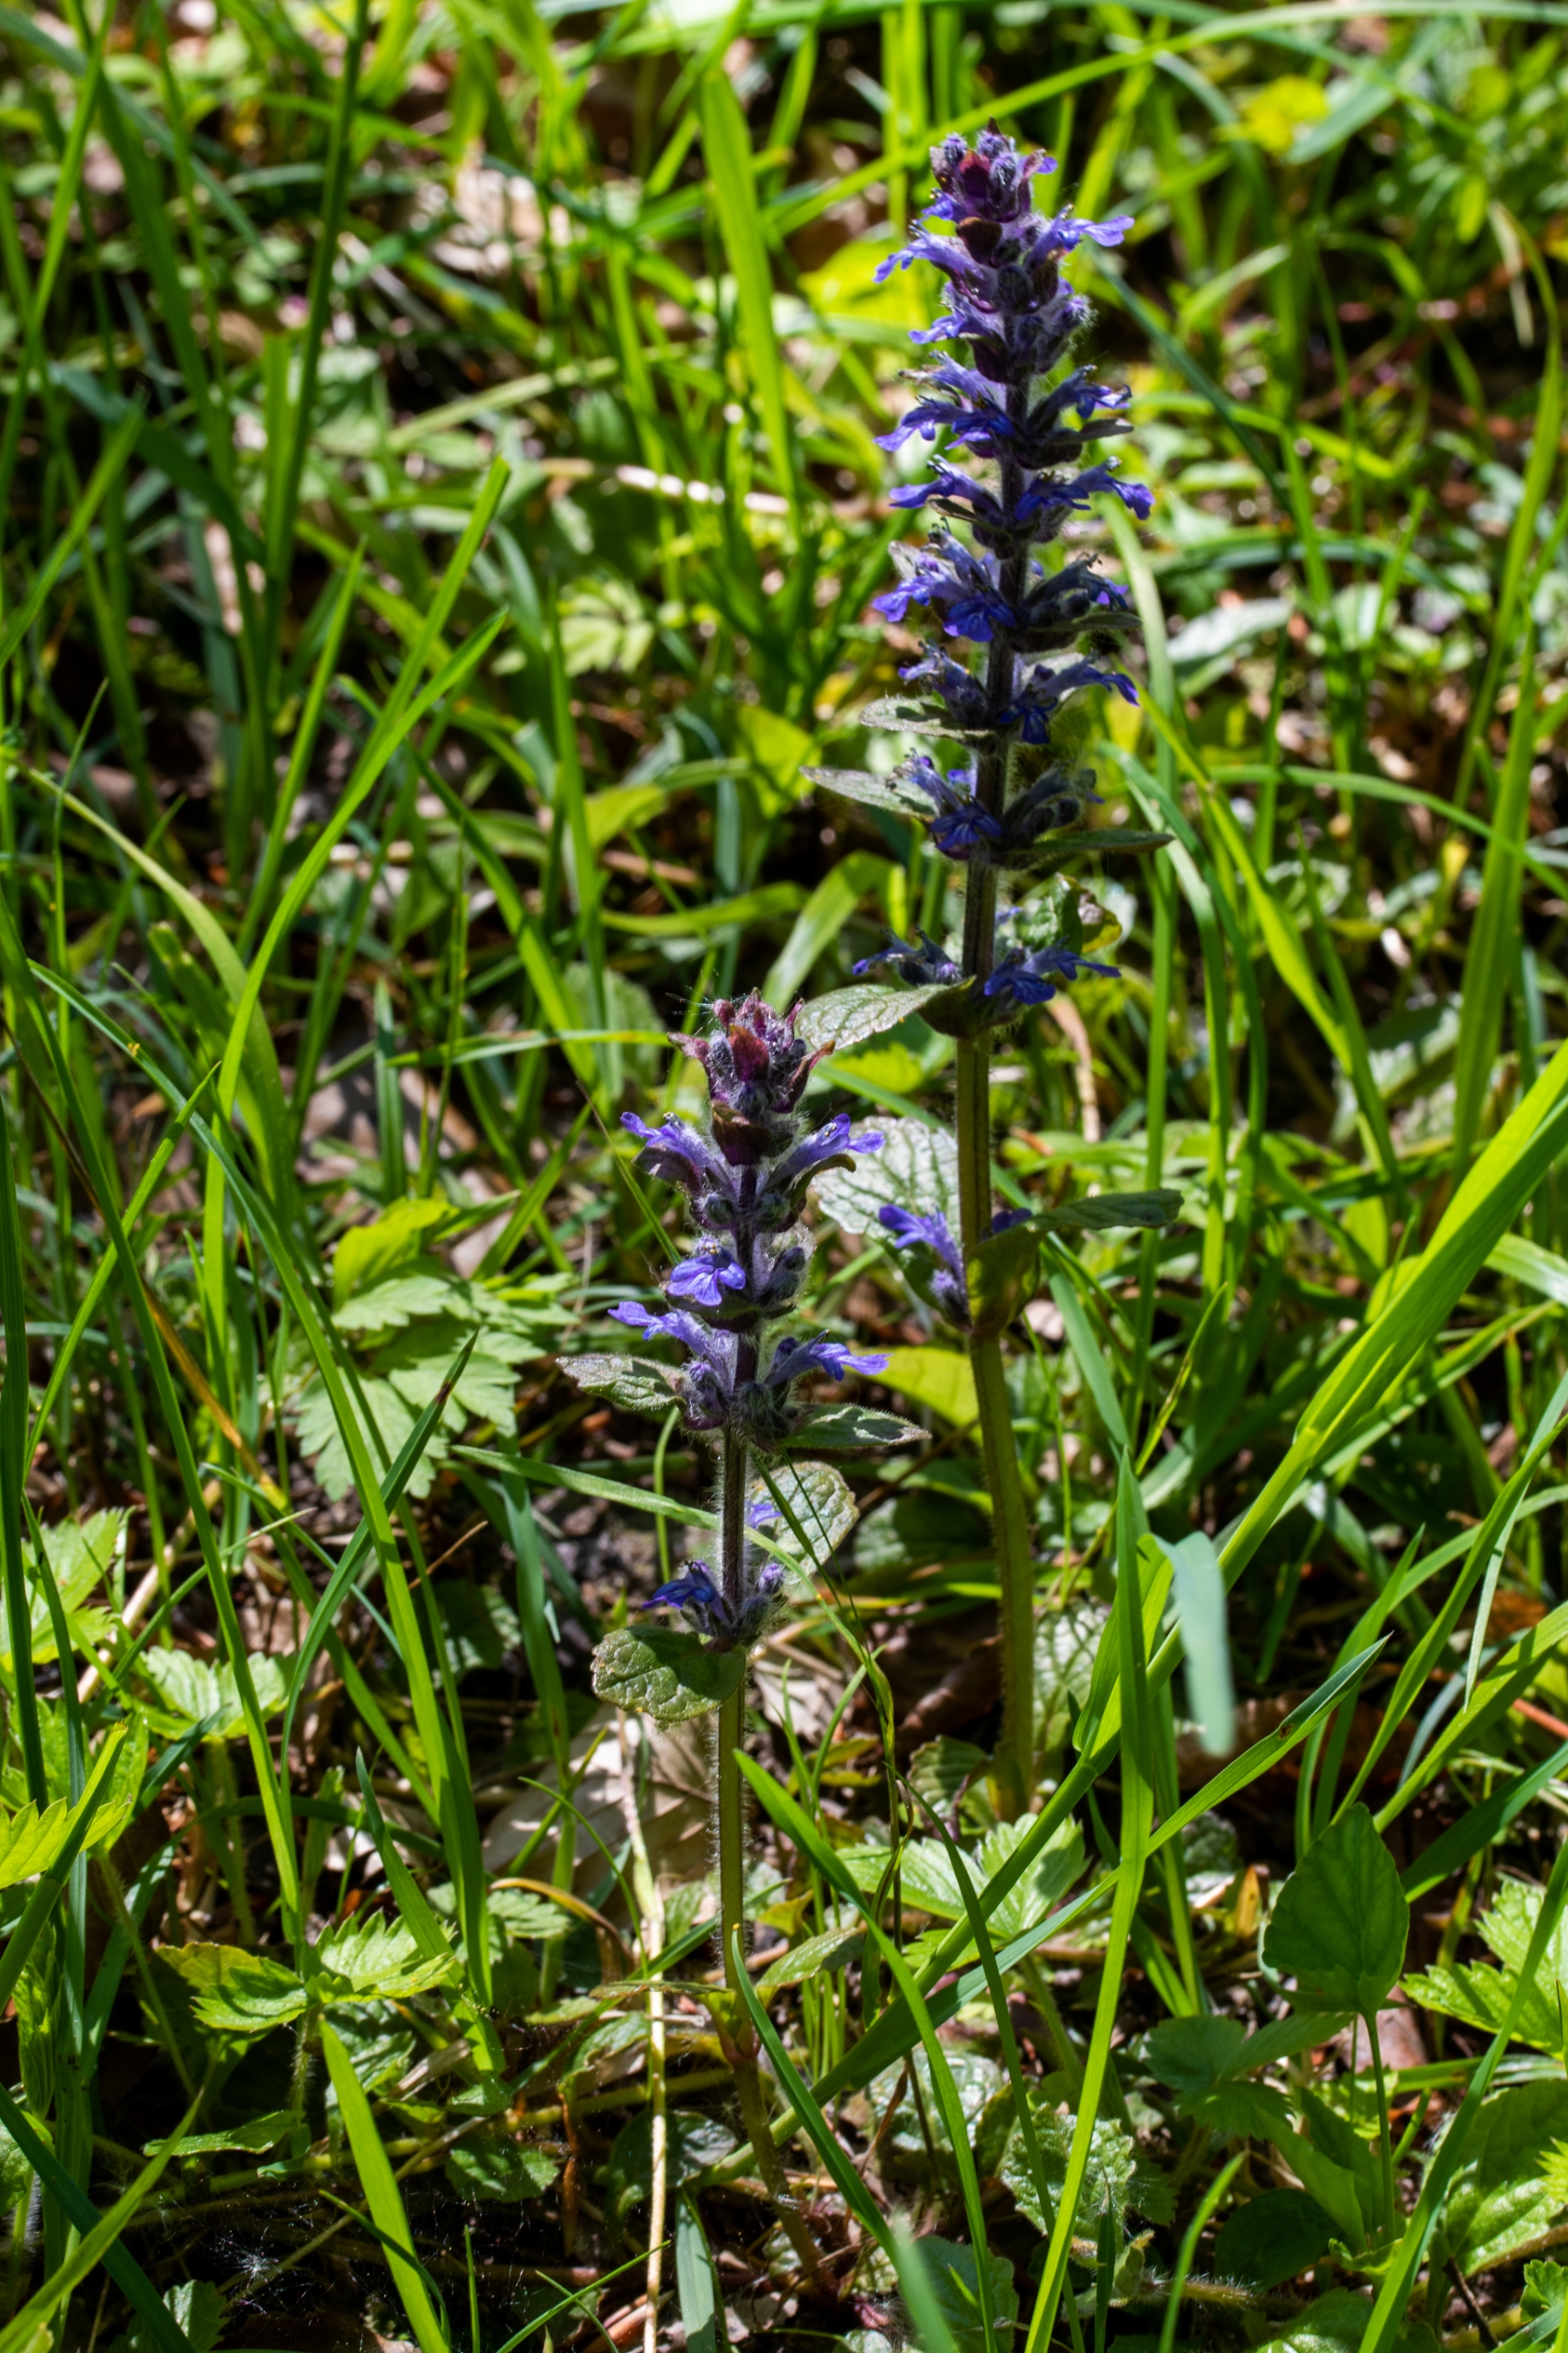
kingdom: Plantae
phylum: Tracheophyta
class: Magnoliopsida
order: Lamiales
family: Lamiaceae
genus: Ajuga
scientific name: Ajuga reptans
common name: Krybende læbeløs
